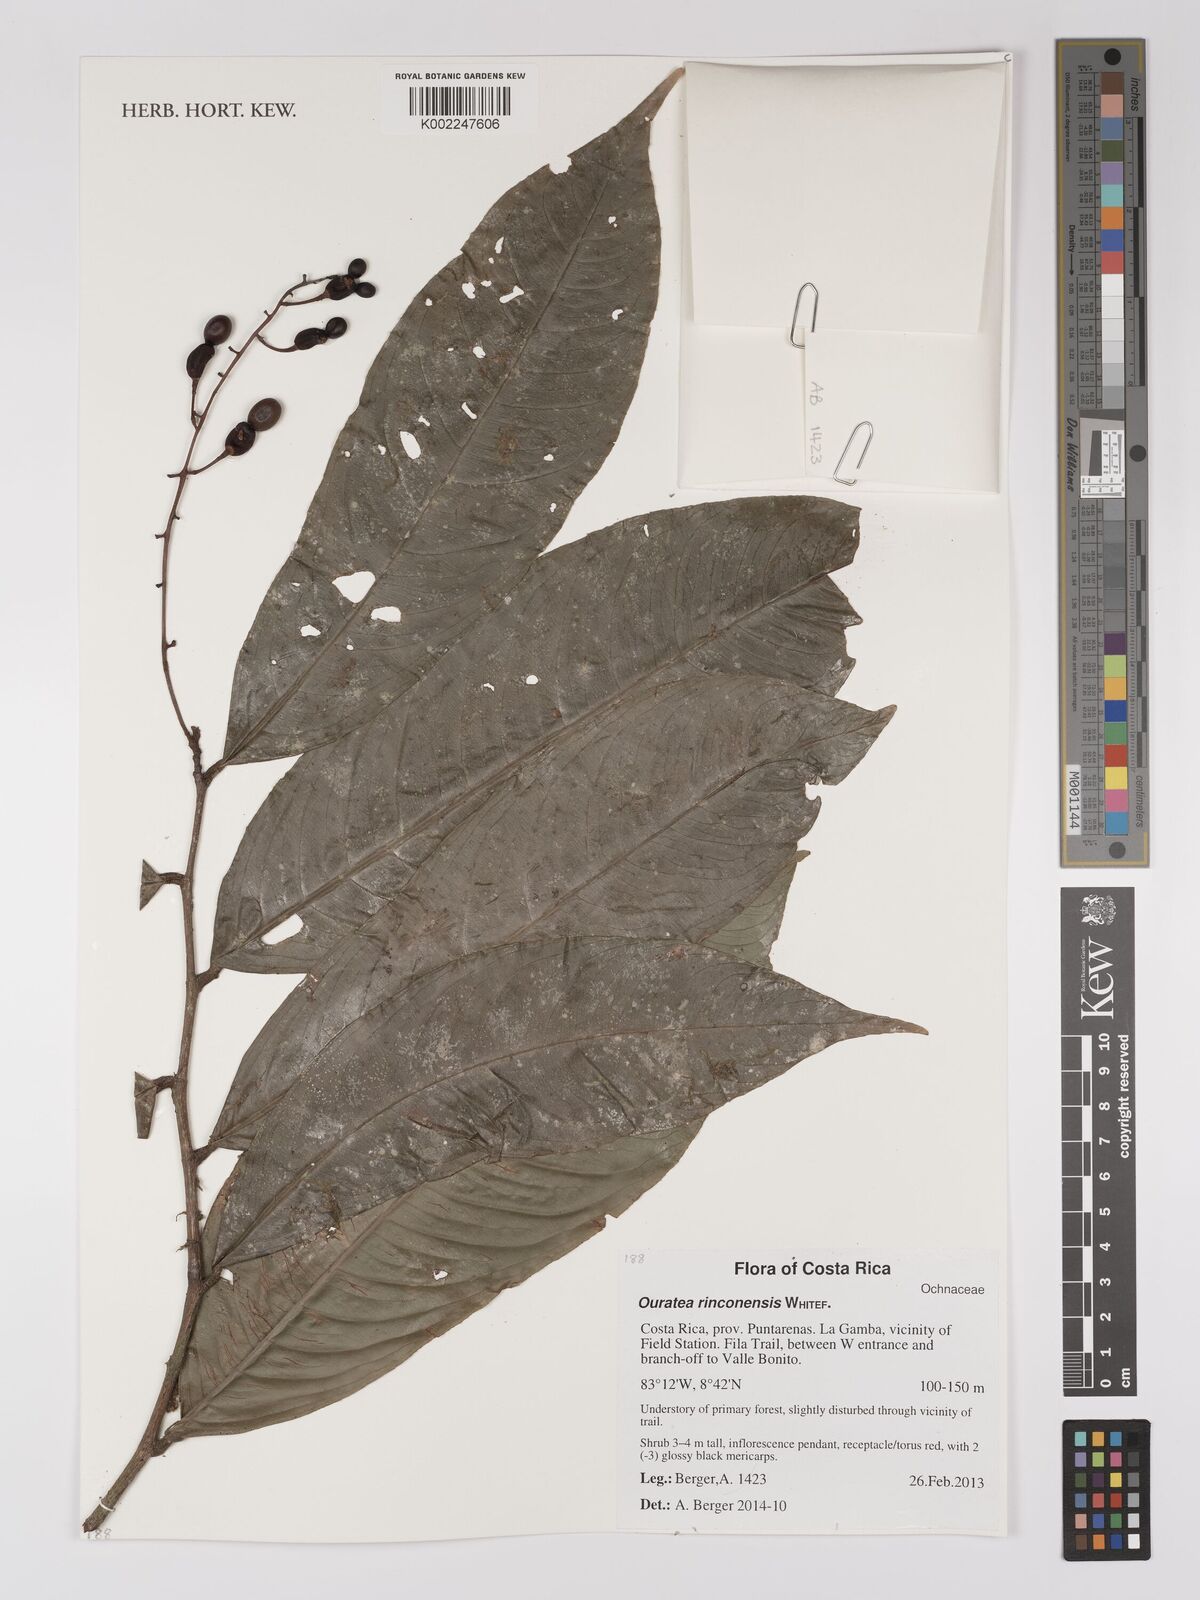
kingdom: Plantae
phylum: Tracheophyta
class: Magnoliopsida
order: Malpighiales
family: Ochnaceae
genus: Ouratea
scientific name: Ouratea rinconensis
